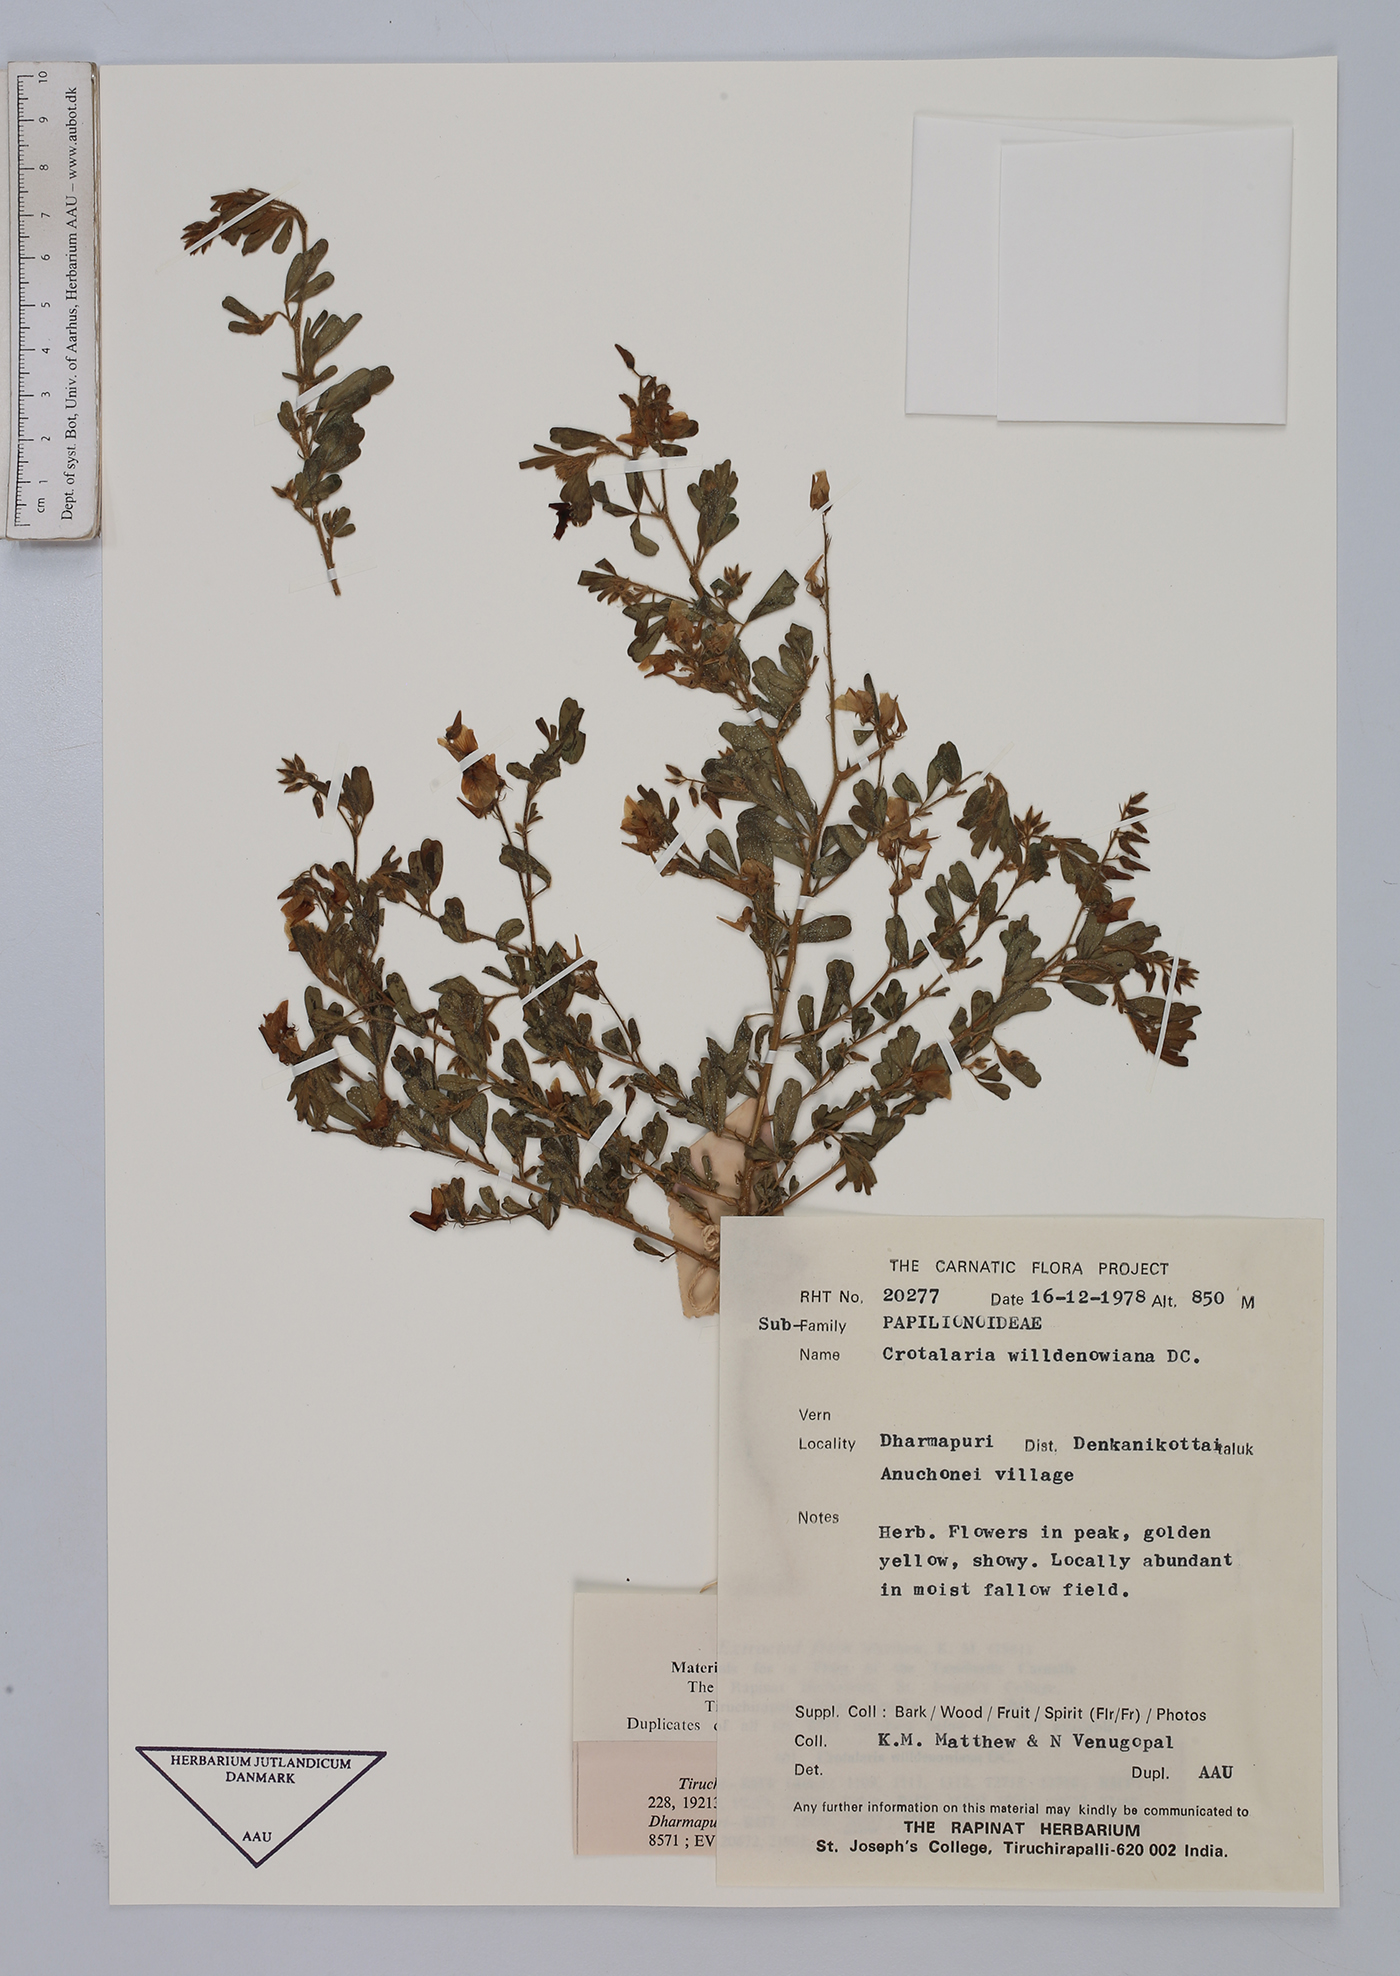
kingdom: Plantae
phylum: Tracheophyta
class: Magnoliopsida
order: Fabales
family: Fabaceae
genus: Crotalaria
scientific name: Crotalaria willdenowiana
